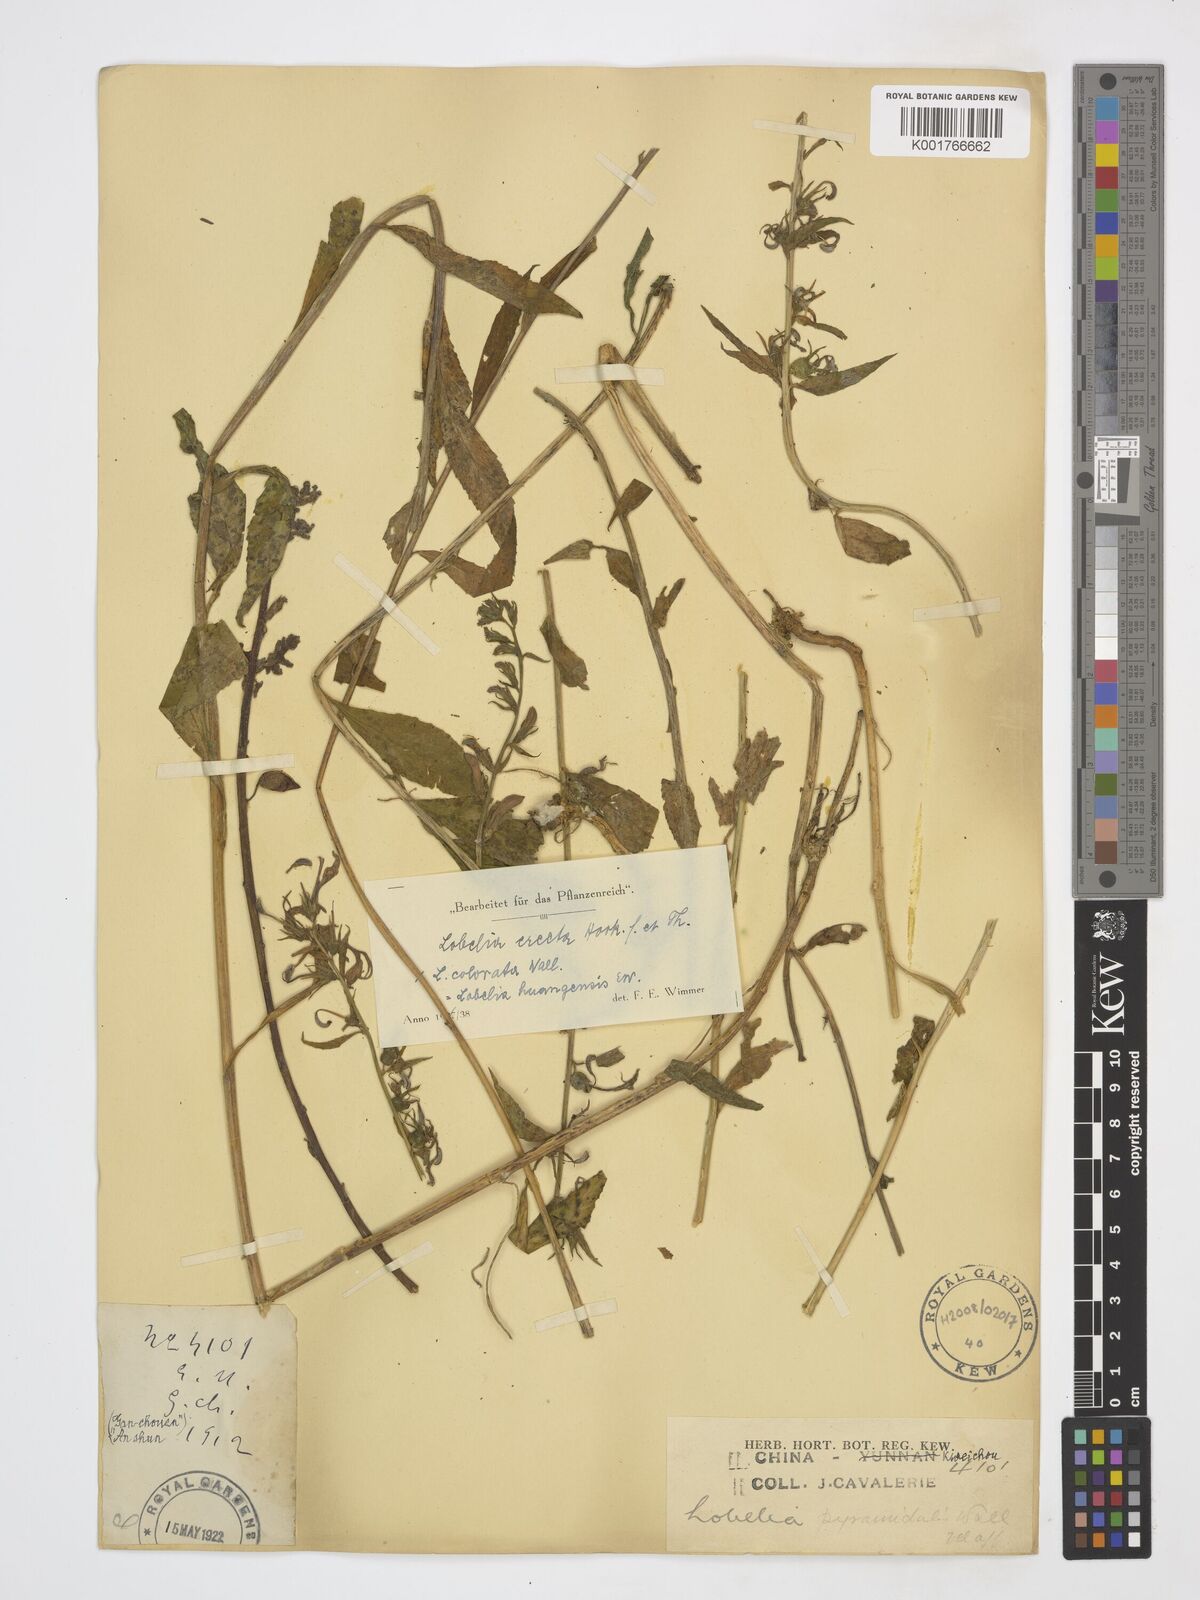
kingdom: Plantae
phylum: Tracheophyta
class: Magnoliopsida
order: Asterales
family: Campanulaceae
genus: Lobelia
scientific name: Lobelia erectiuscula
